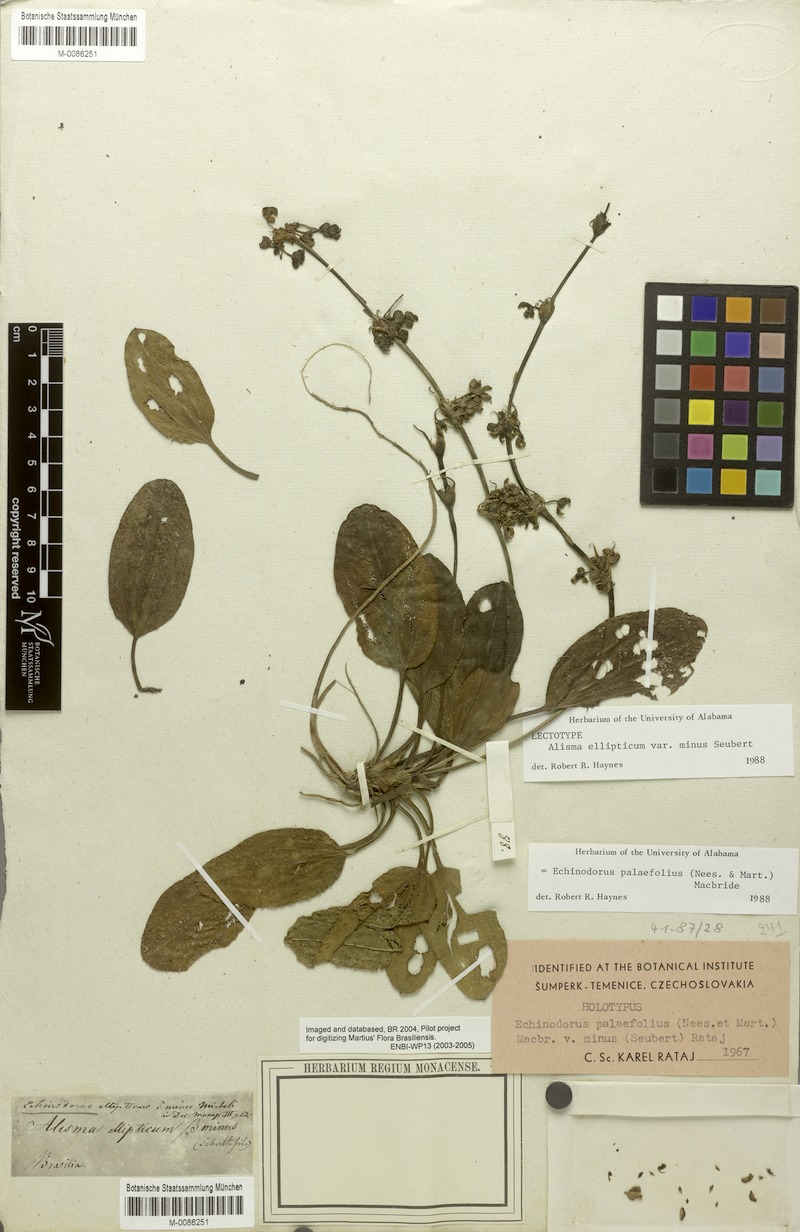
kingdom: Plantae
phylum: Tracheophyta
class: Liliopsida
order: Alismatales
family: Alismataceae
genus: Aquarius
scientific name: Aquarius palifolius
